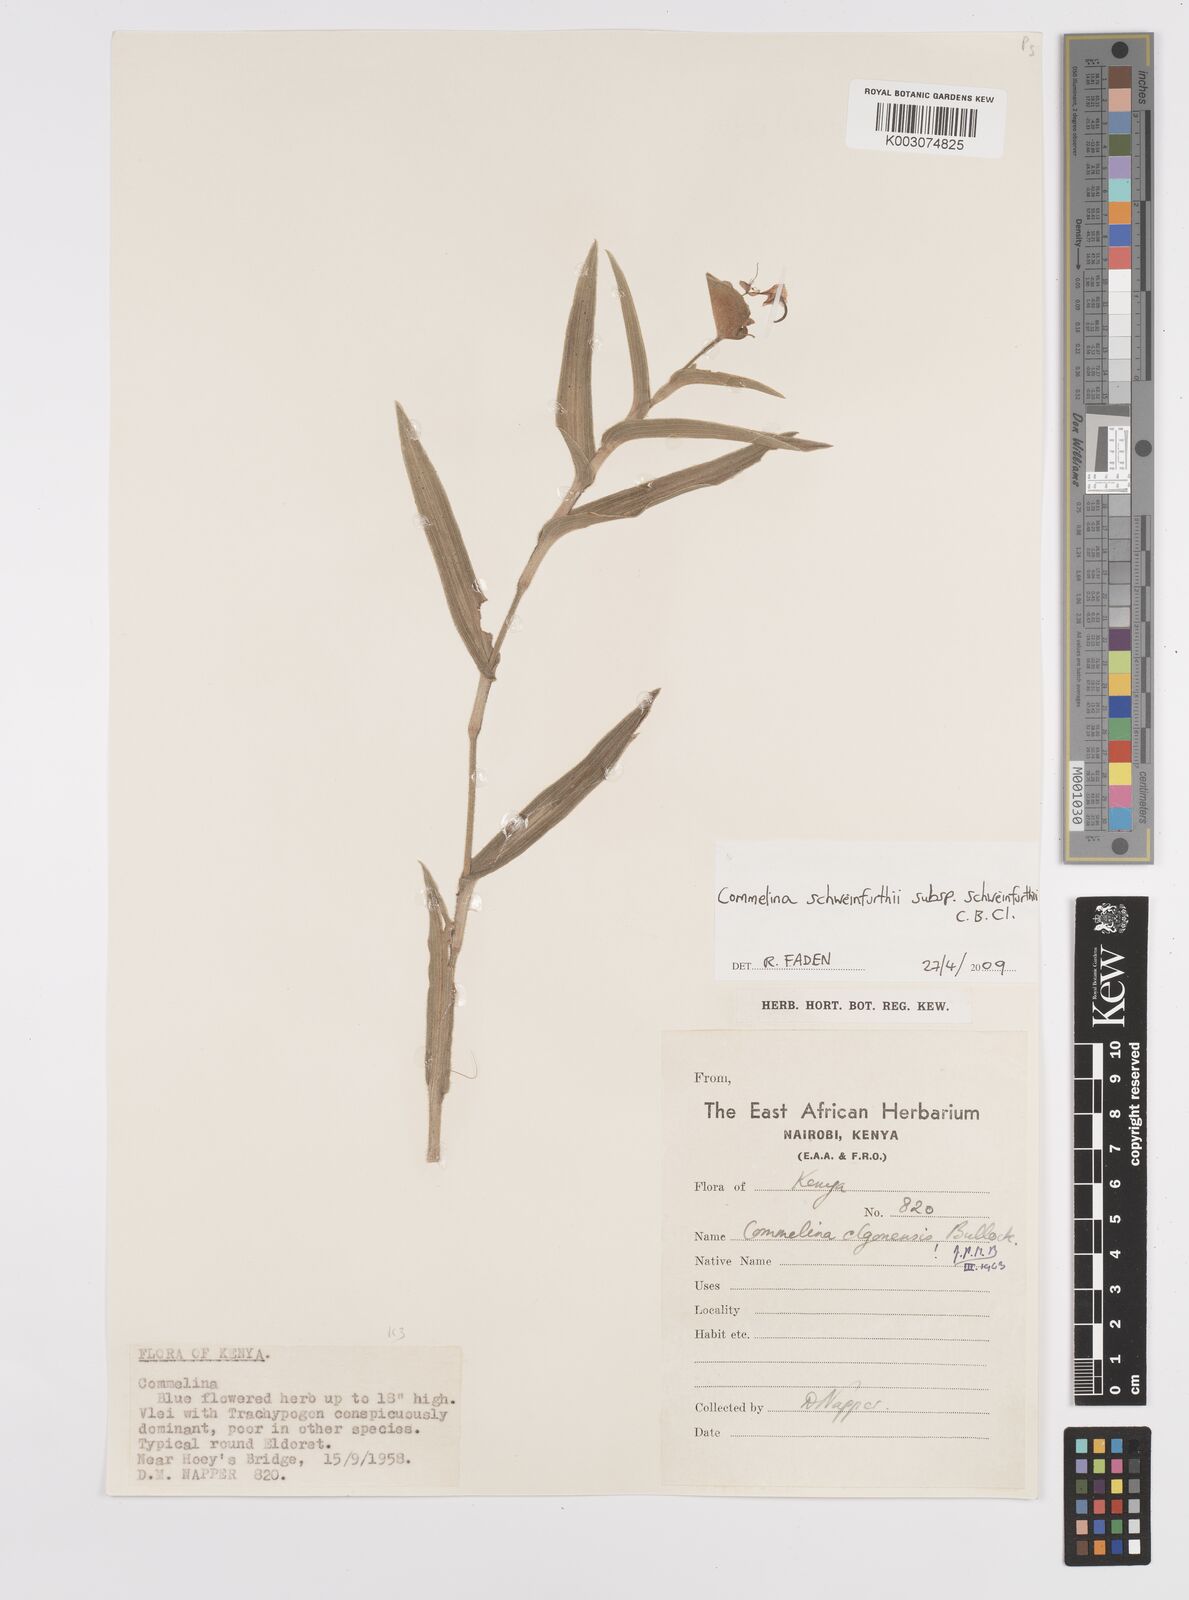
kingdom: Plantae
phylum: Tracheophyta
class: Liliopsida
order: Commelinales
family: Commelinaceae
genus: Commelina
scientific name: Commelina schweinfurthii
